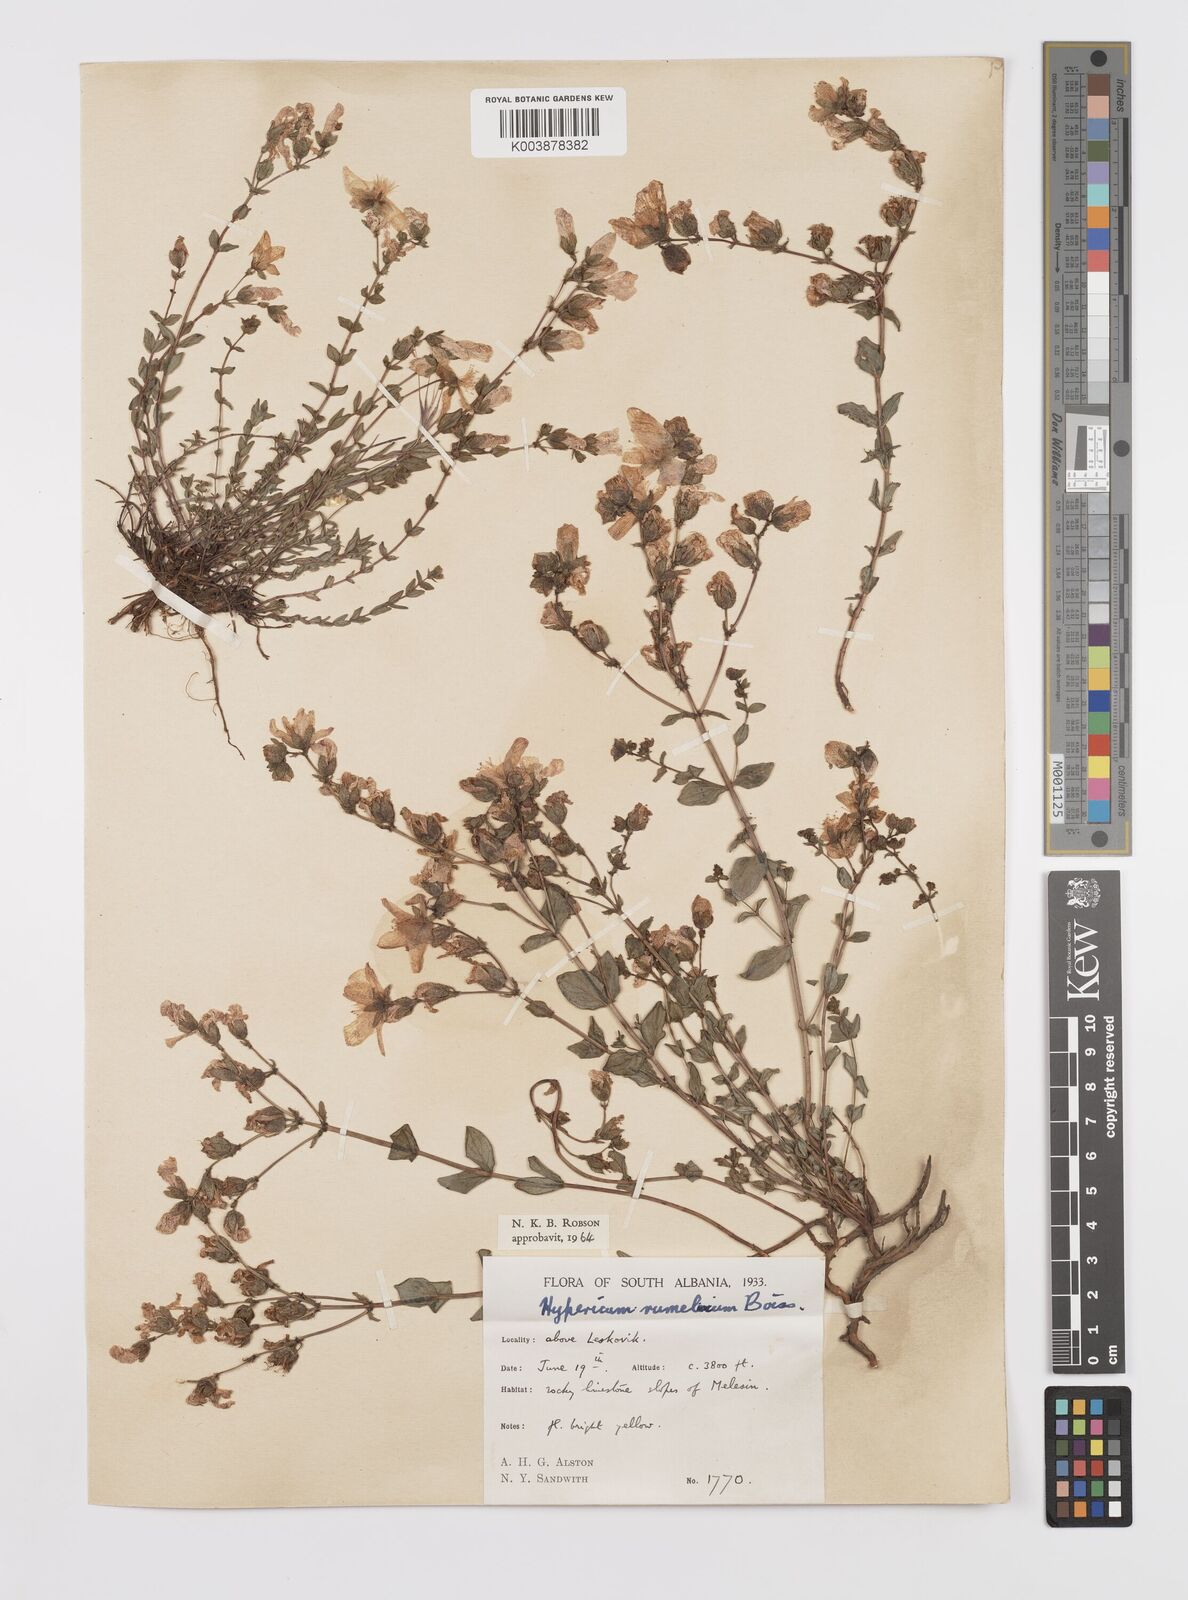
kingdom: Plantae
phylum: Tracheophyta
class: Magnoliopsida
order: Malpighiales
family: Hypericaceae
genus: Hypericum
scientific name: Hypericum rumeliacum
